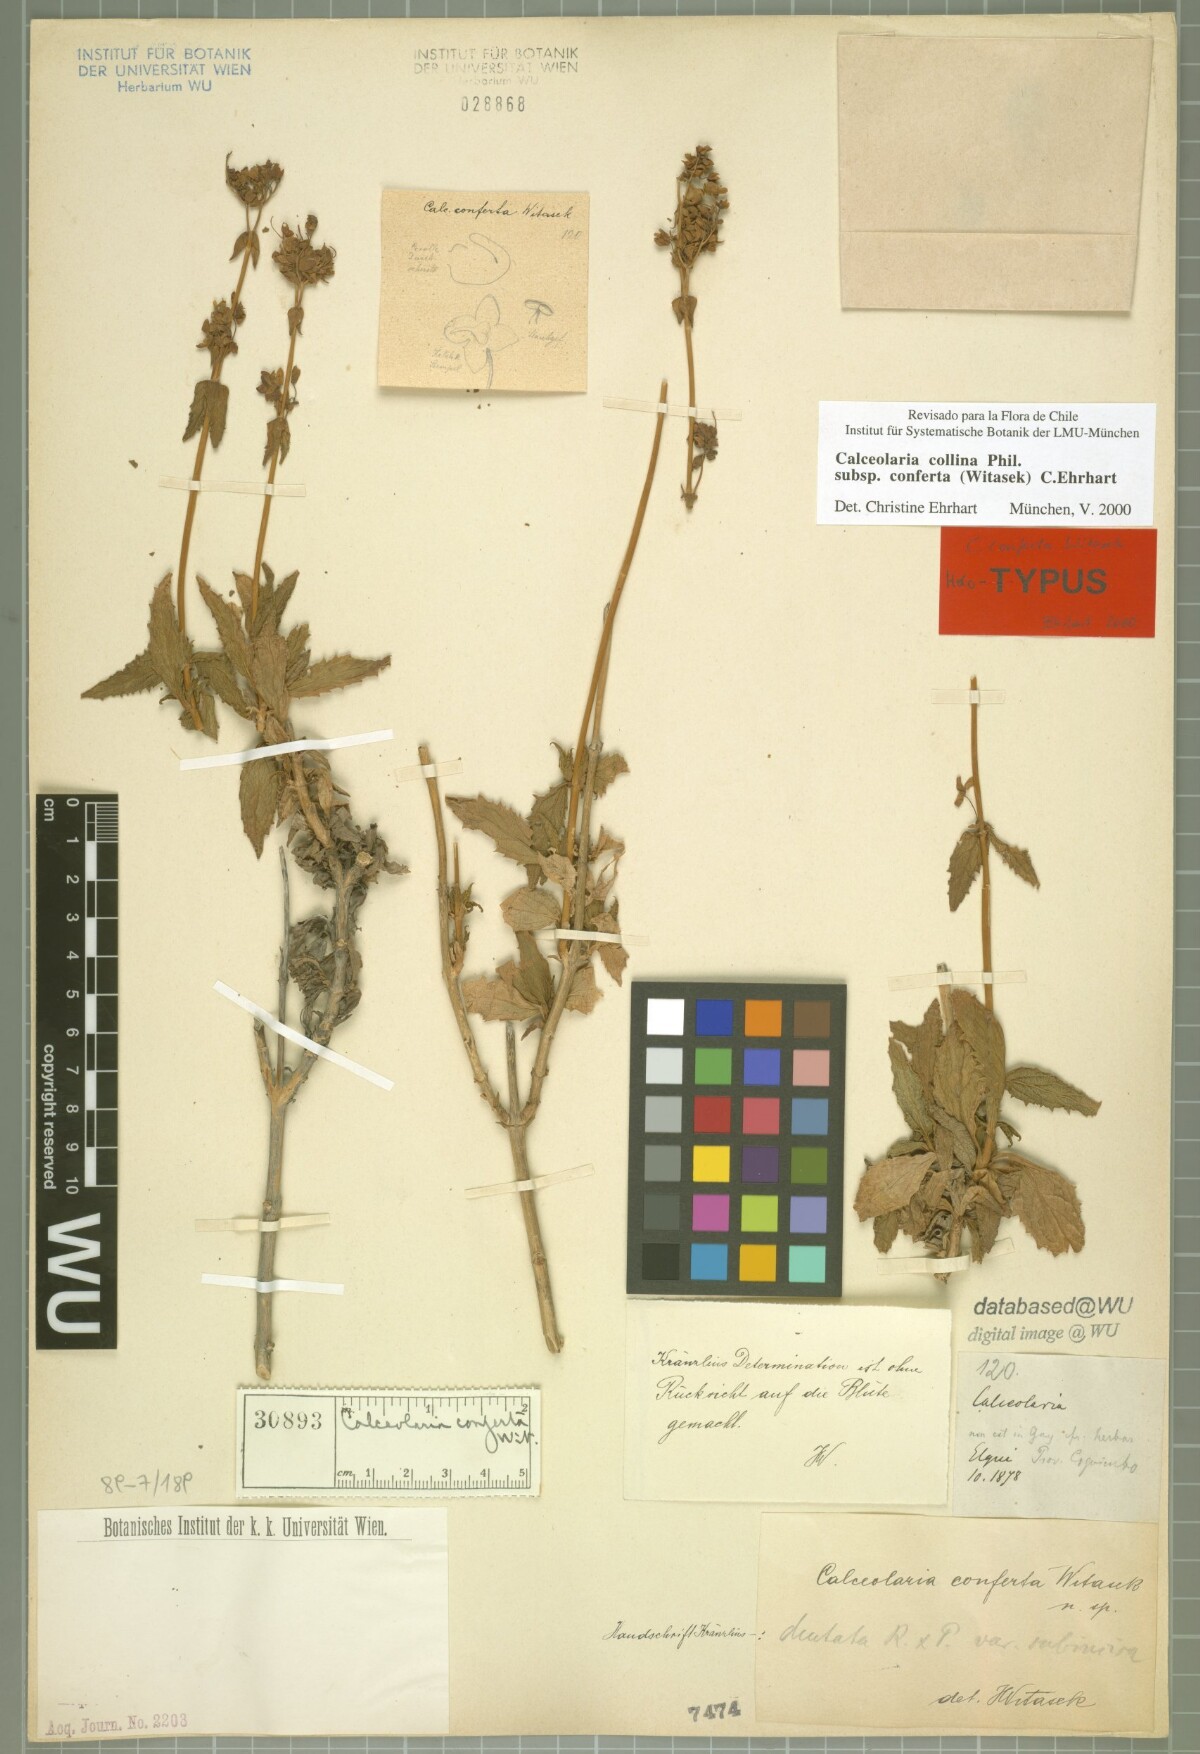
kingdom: Plantae
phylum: Tracheophyta
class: Magnoliopsida
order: Lamiales
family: Calceolariaceae
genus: Calceolaria
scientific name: Calceolaria collina
